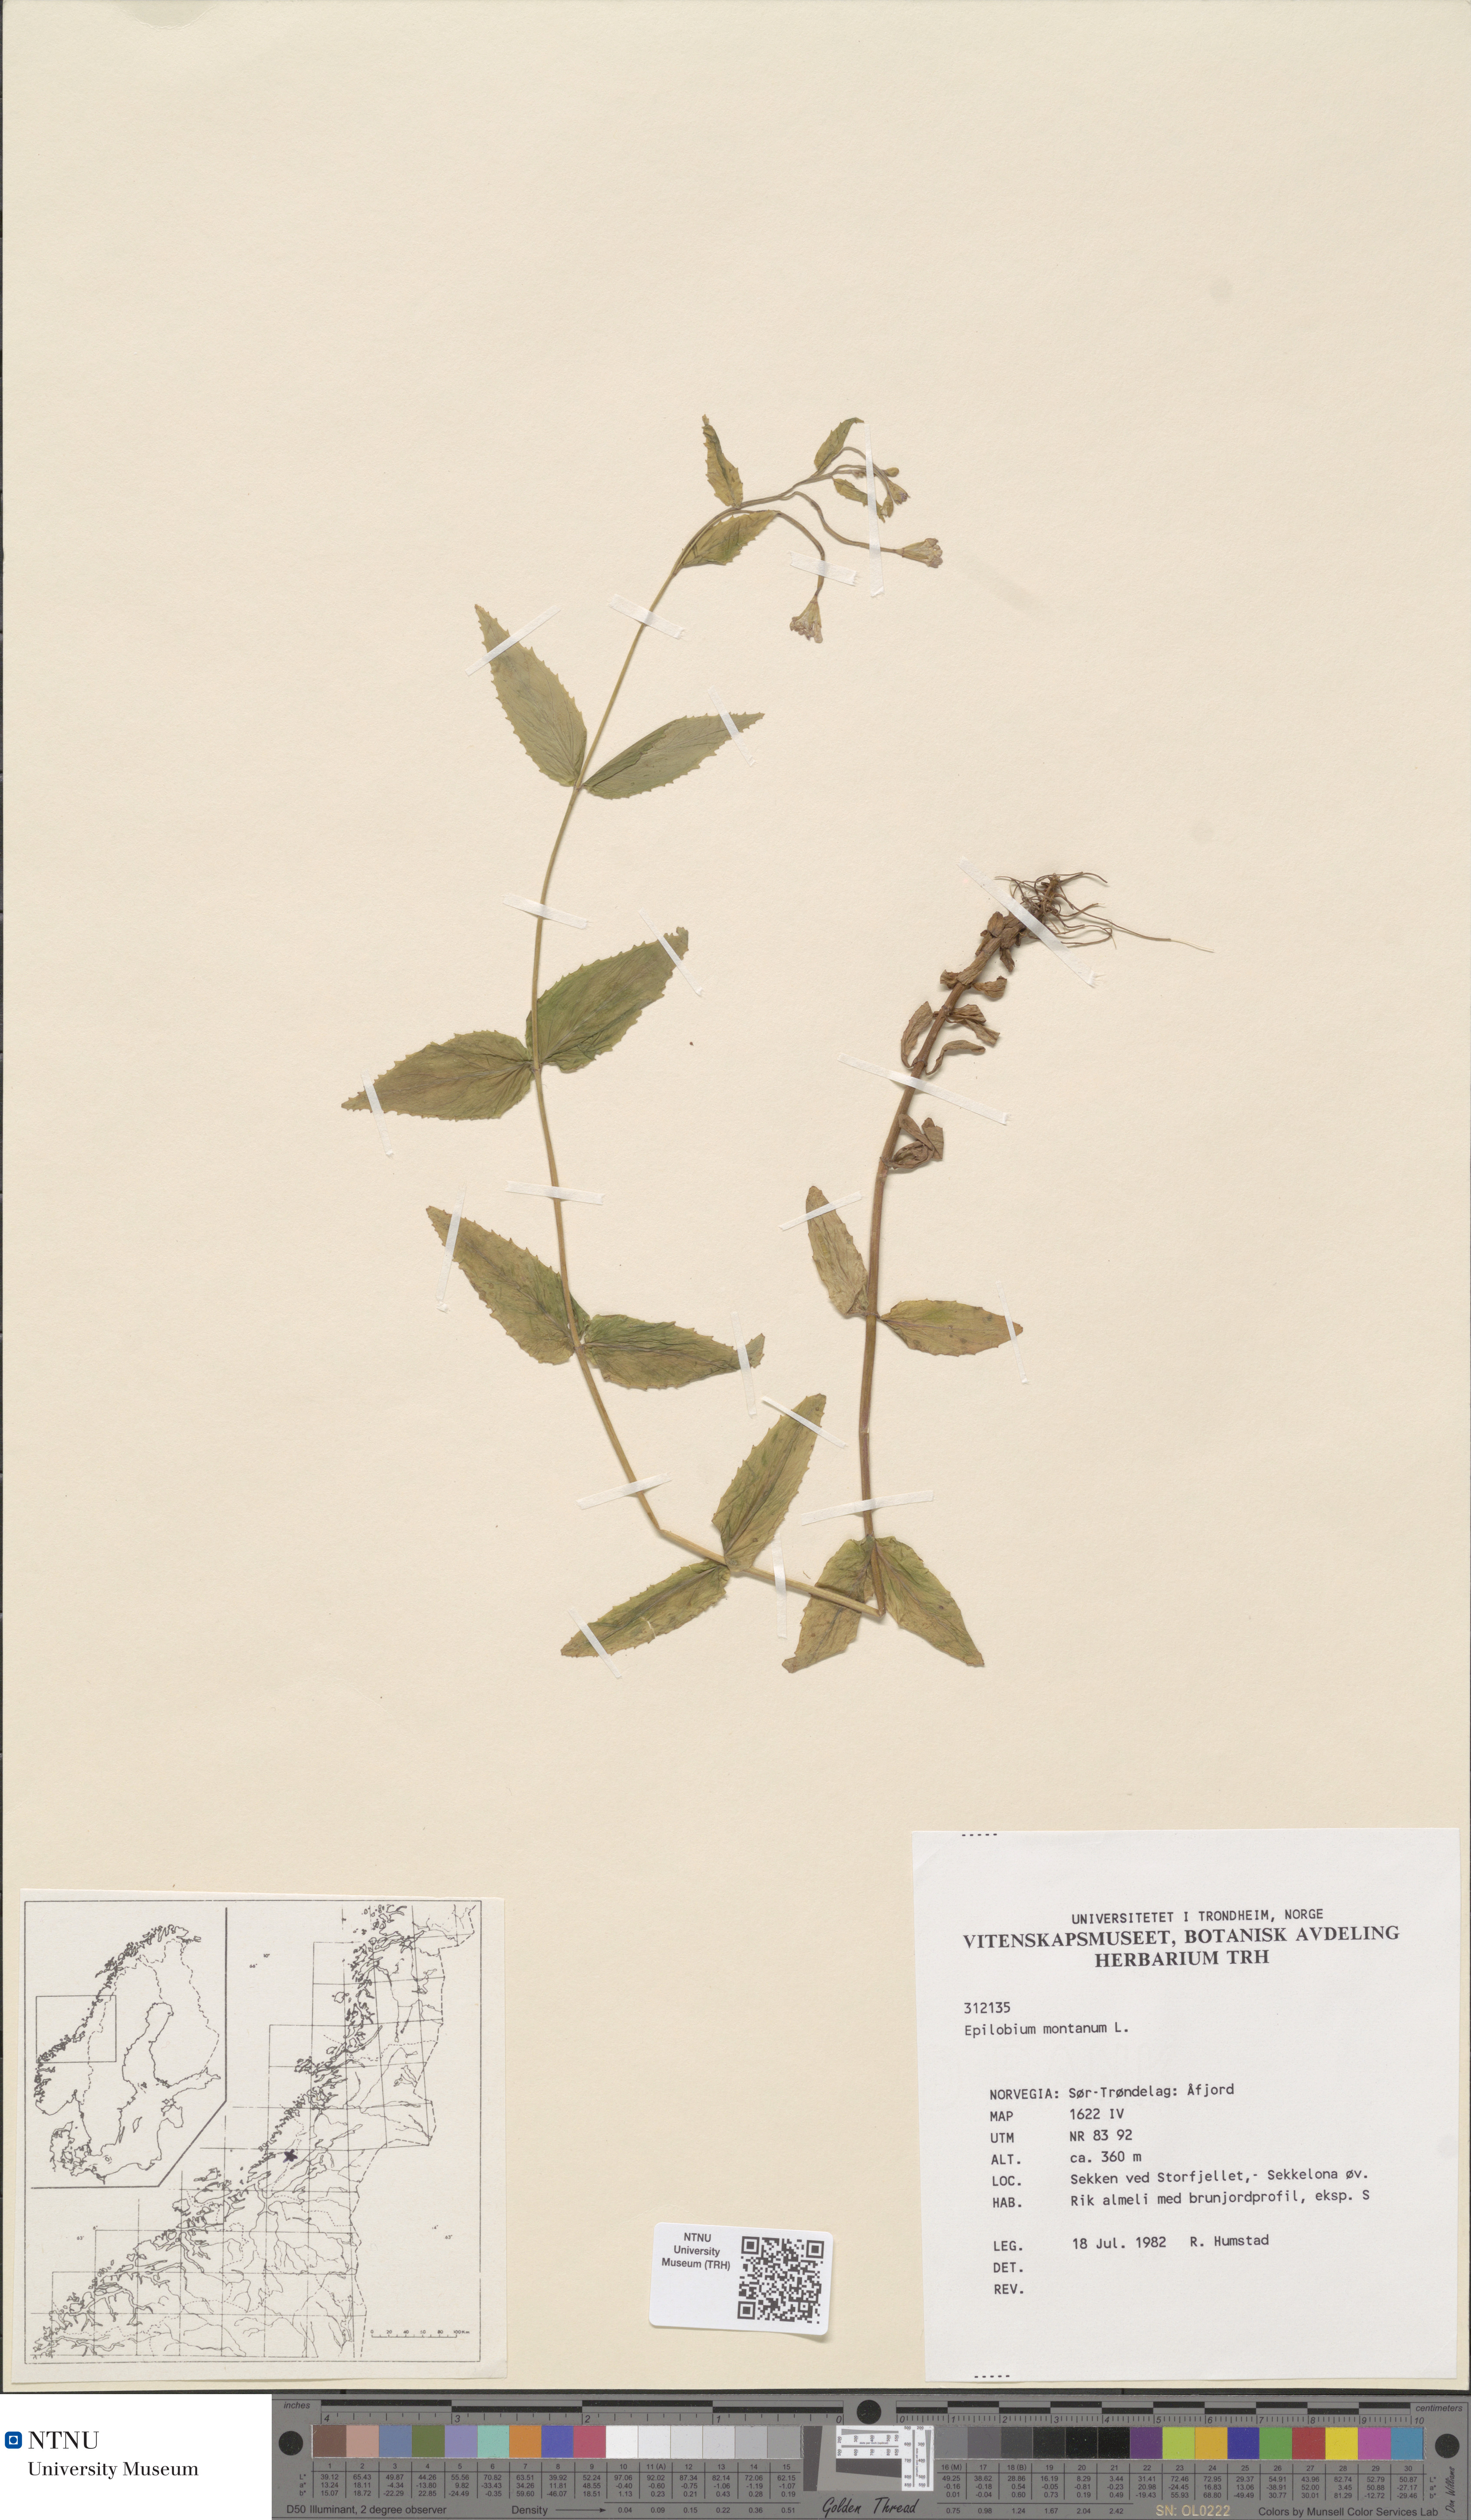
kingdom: Plantae
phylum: Tracheophyta
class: Magnoliopsida
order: Myrtales
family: Onagraceae
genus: Epilobium
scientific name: Epilobium montanum
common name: Broad-leaved willowherb
